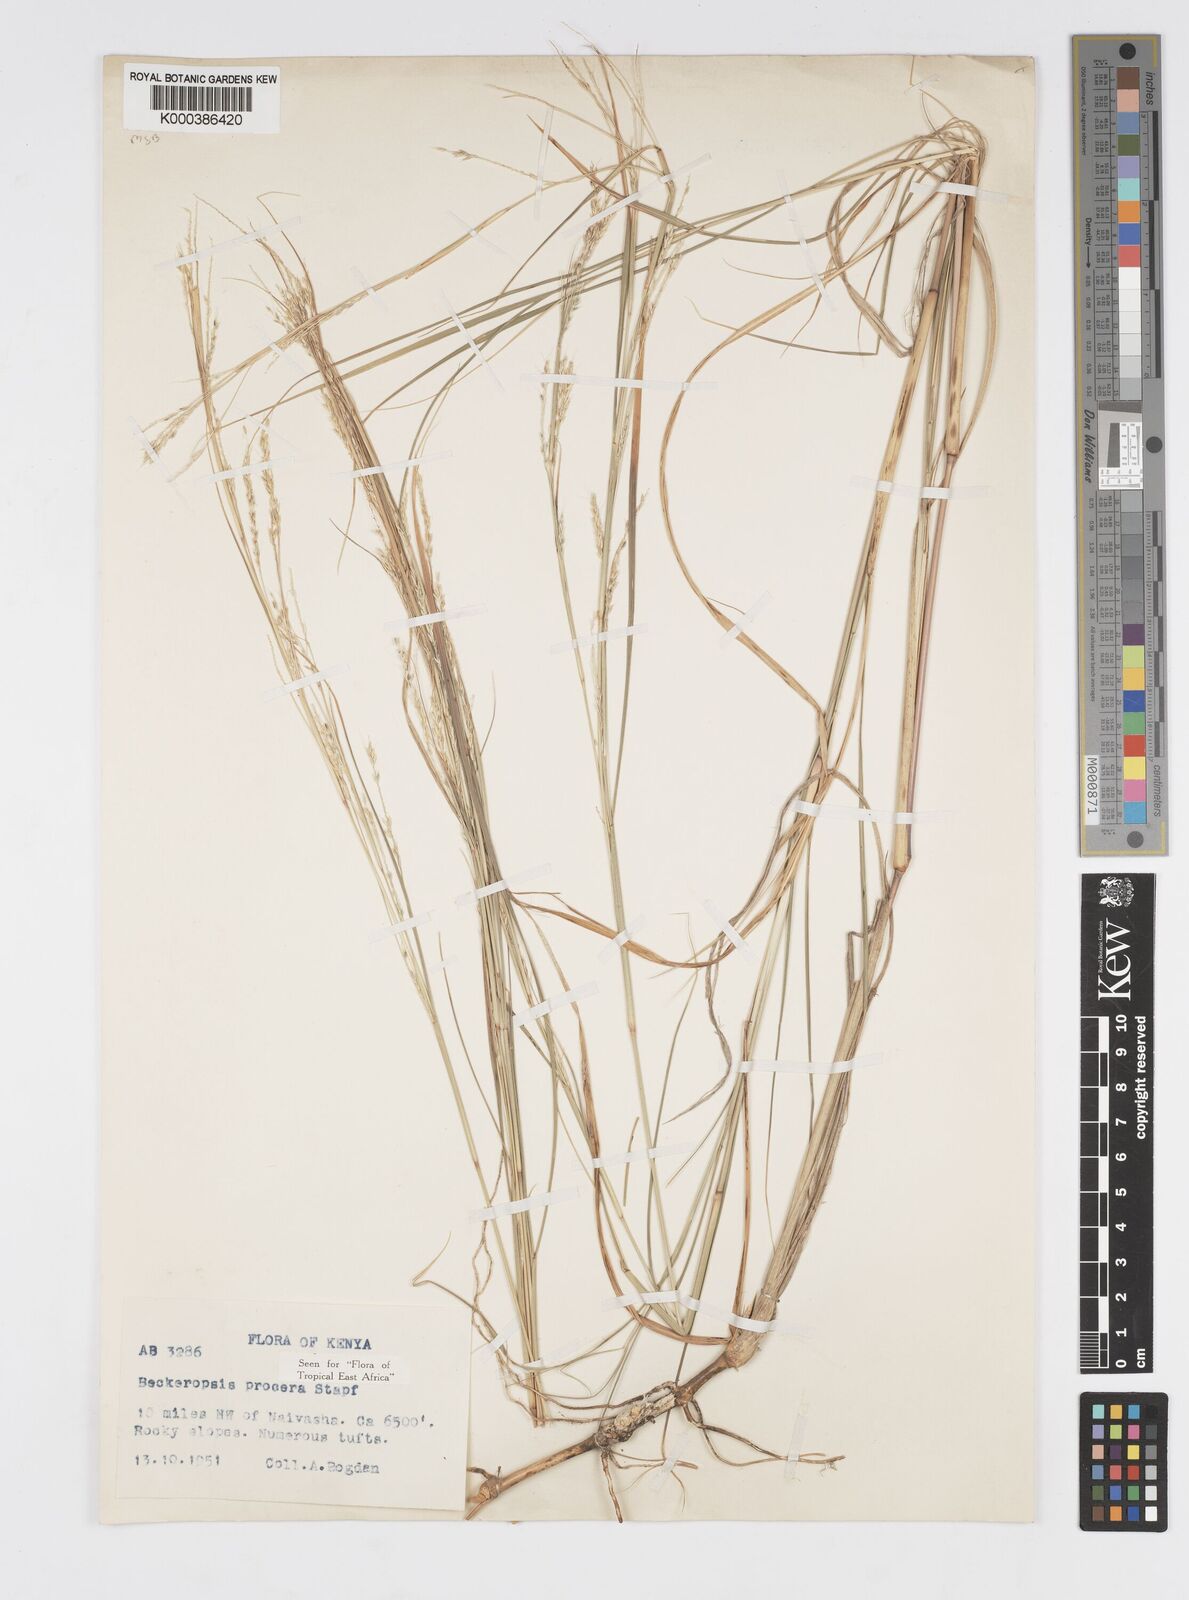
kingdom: Plantae
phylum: Tracheophyta
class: Liliopsida
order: Poales
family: Poaceae
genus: Cenchrus
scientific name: Cenchrus procerus
